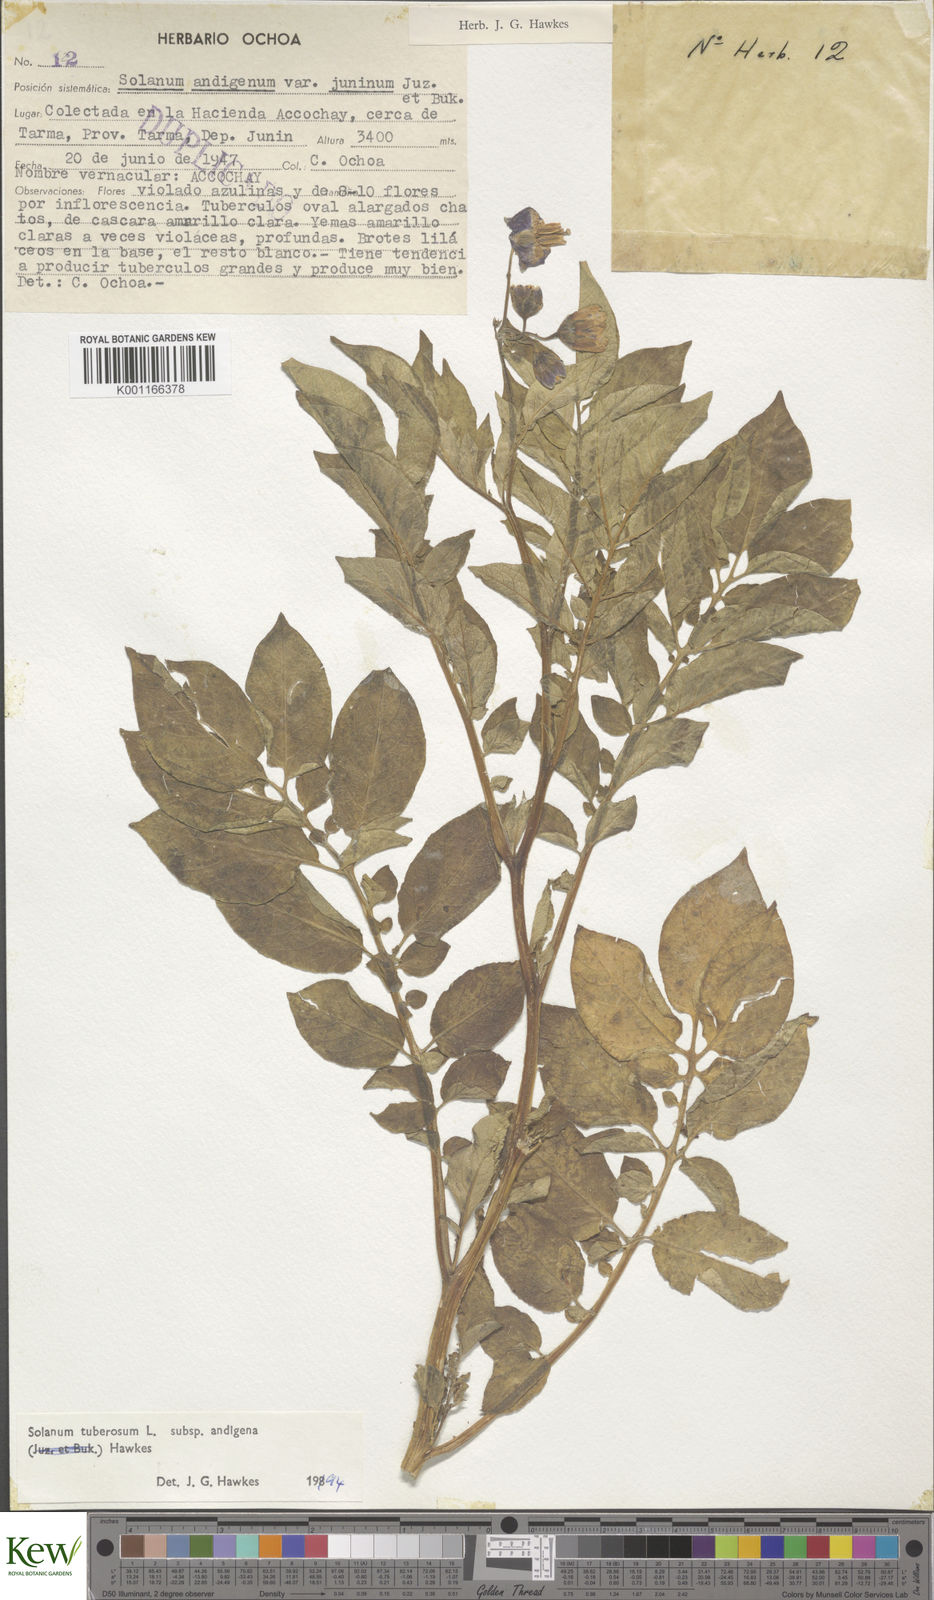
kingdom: Plantae
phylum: Tracheophyta
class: Magnoliopsida
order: Solanales
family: Solanaceae
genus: Solanum
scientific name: Solanum tuberosum
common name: Potato
